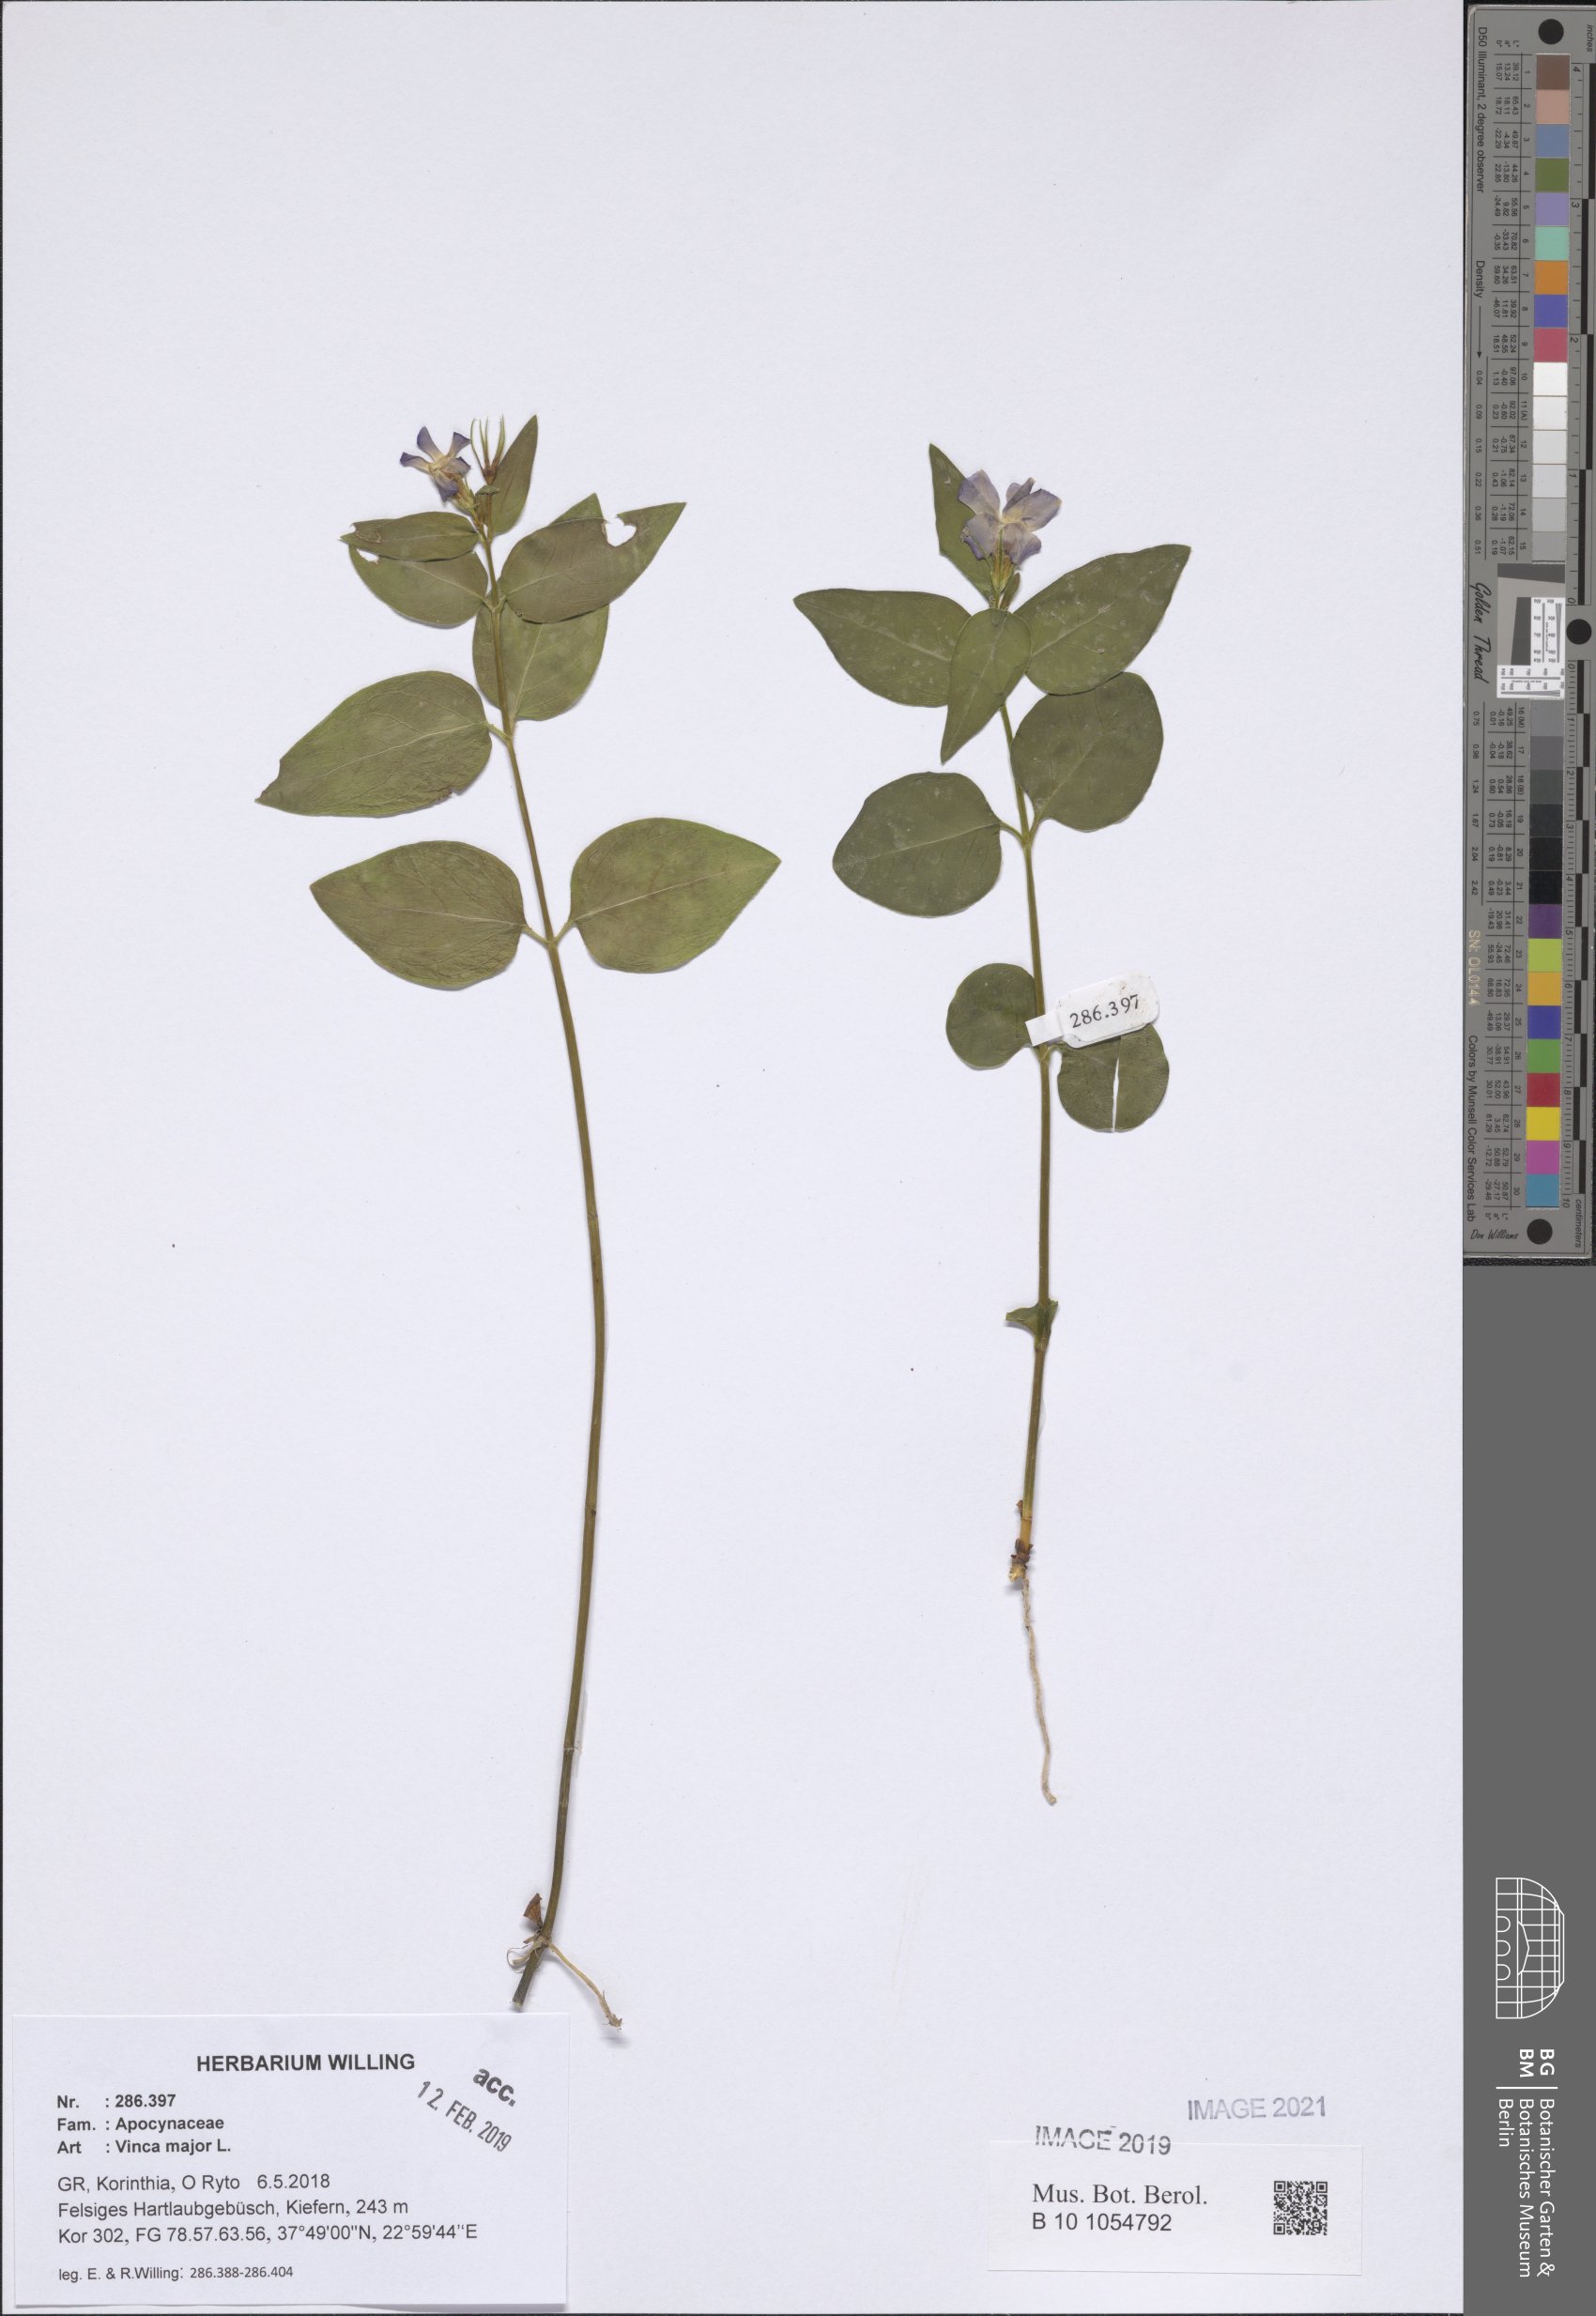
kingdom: Plantae
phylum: Tracheophyta
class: Magnoliopsida
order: Gentianales
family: Apocynaceae
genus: Vinca
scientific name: Vinca major
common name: Greater periwinkle
